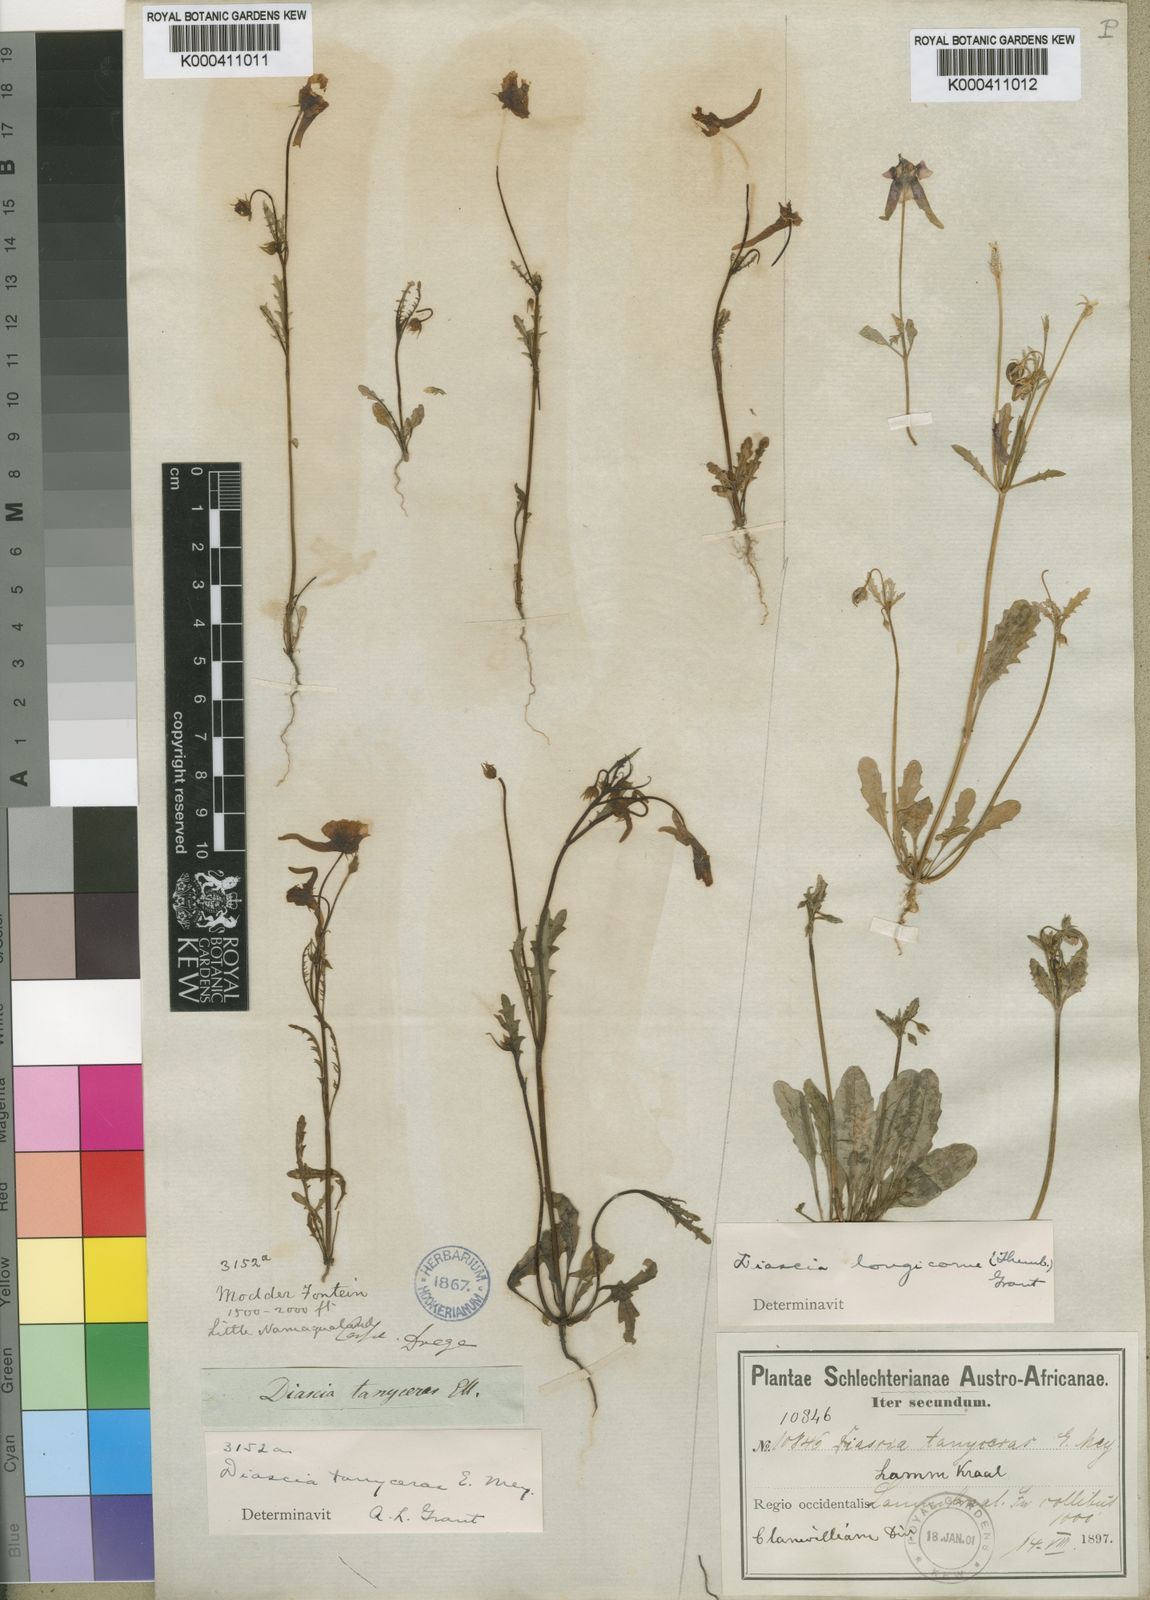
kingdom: Plantae
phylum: Tracheophyta
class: Magnoliopsida
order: Lamiales
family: Scrophulariaceae
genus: Diascia
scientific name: Diascia tanyceras
